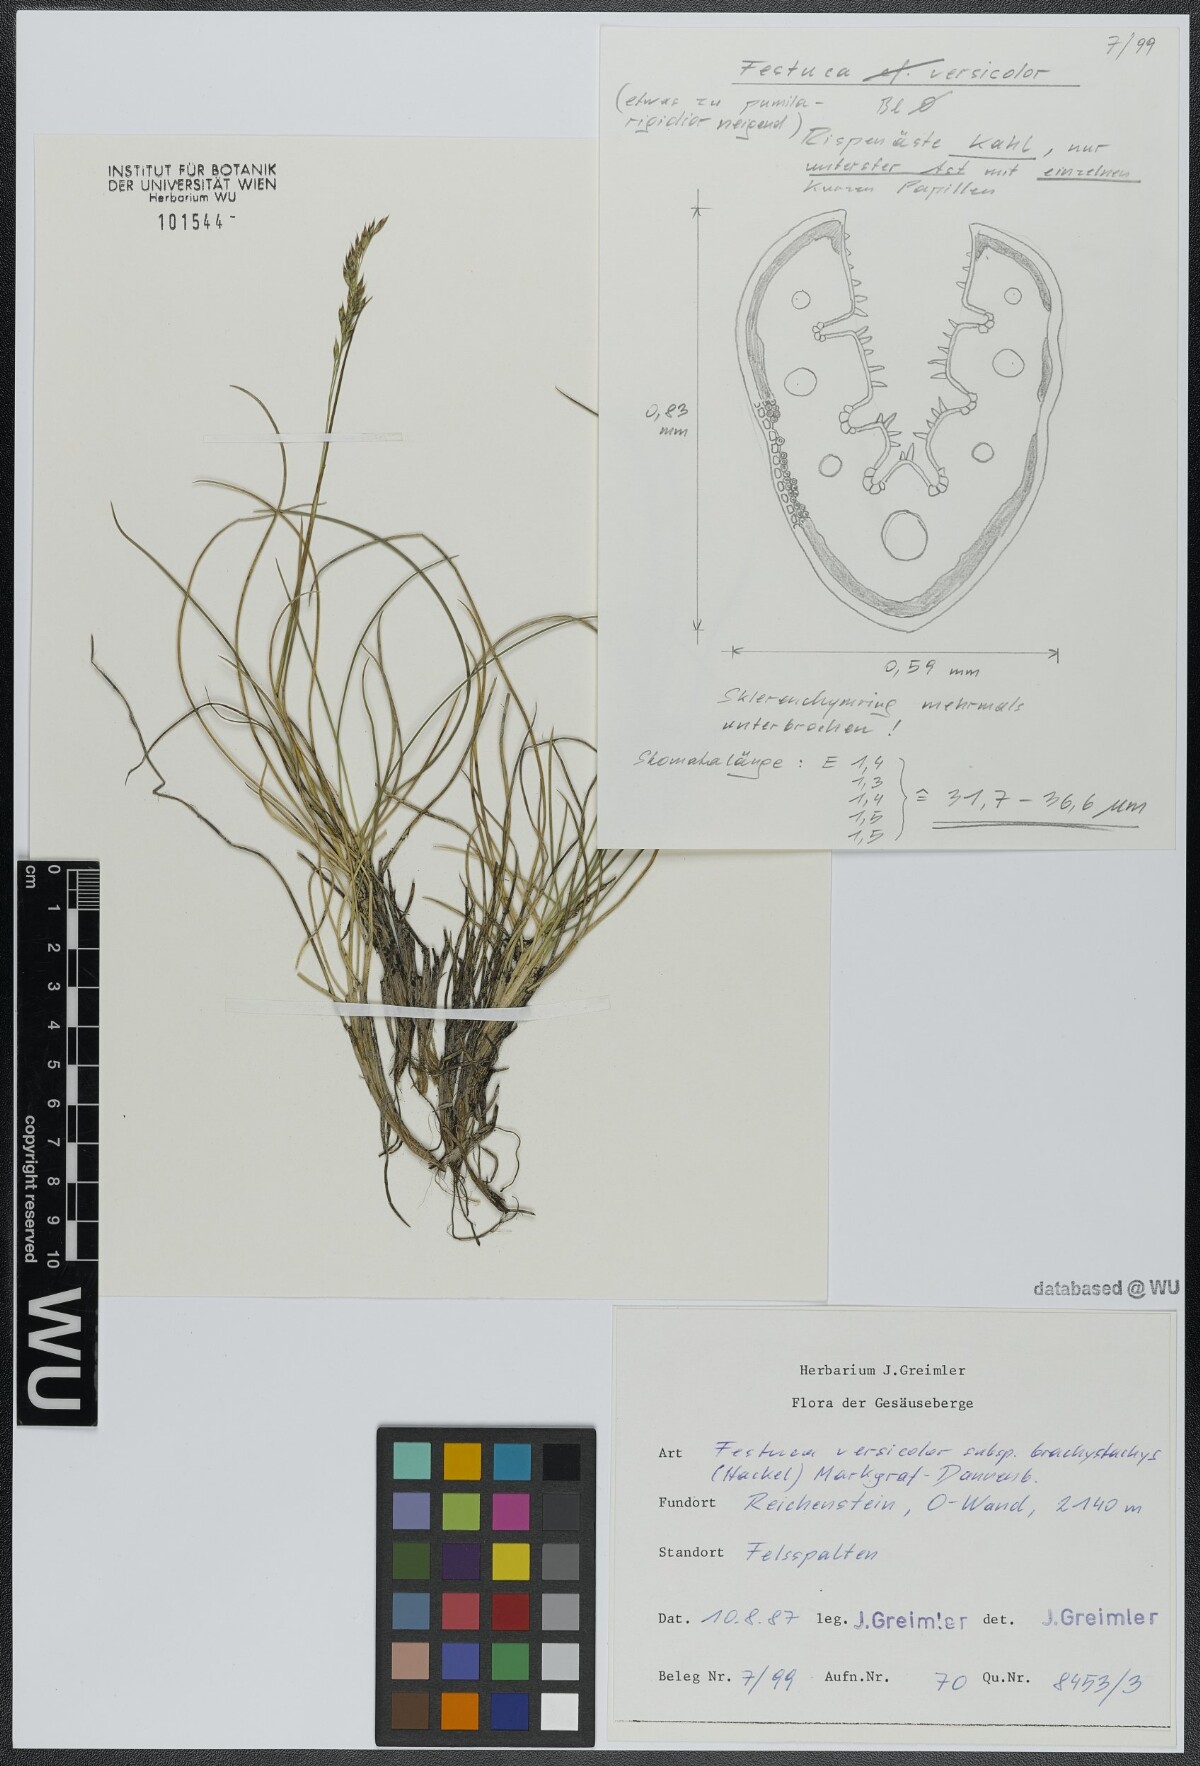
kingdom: Plantae
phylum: Tracheophyta
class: Liliopsida
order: Poales
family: Poaceae
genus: Festuca
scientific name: Festuca varia
